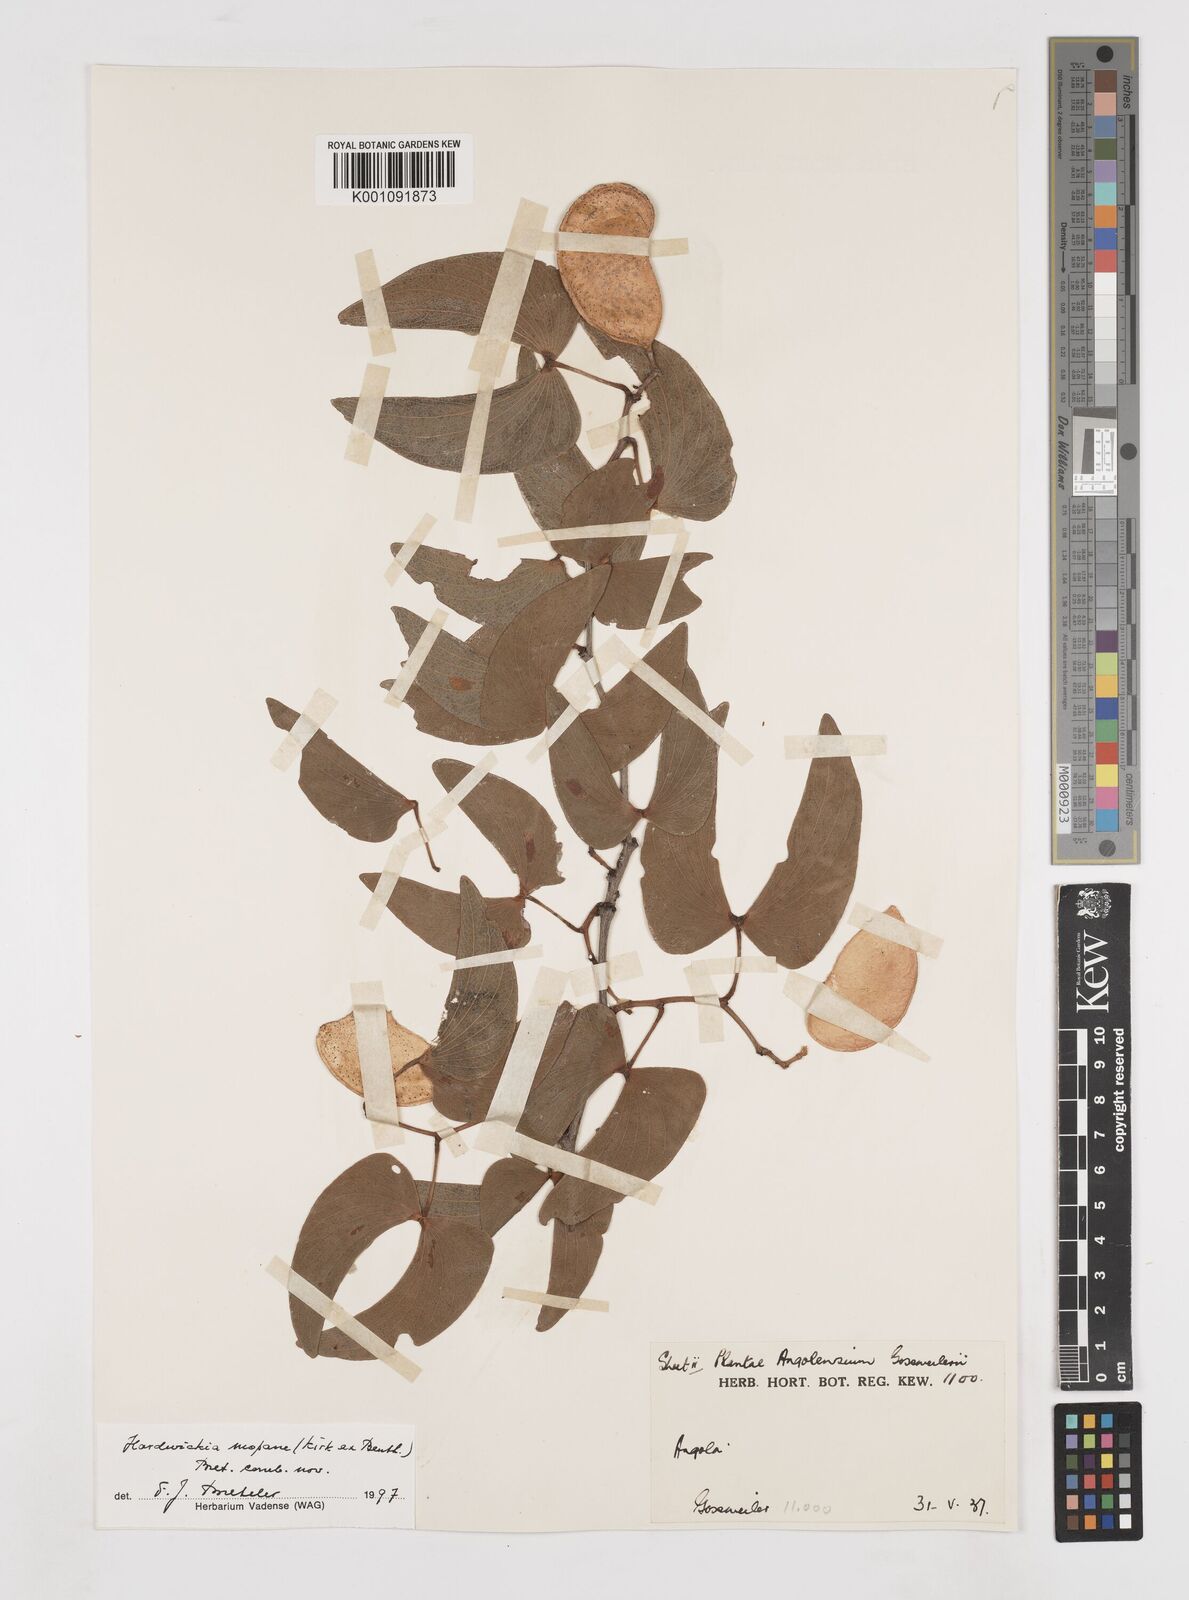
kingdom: Plantae
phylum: Tracheophyta
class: Magnoliopsida
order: Fabales
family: Fabaceae
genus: Colophospermum
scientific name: Colophospermum
